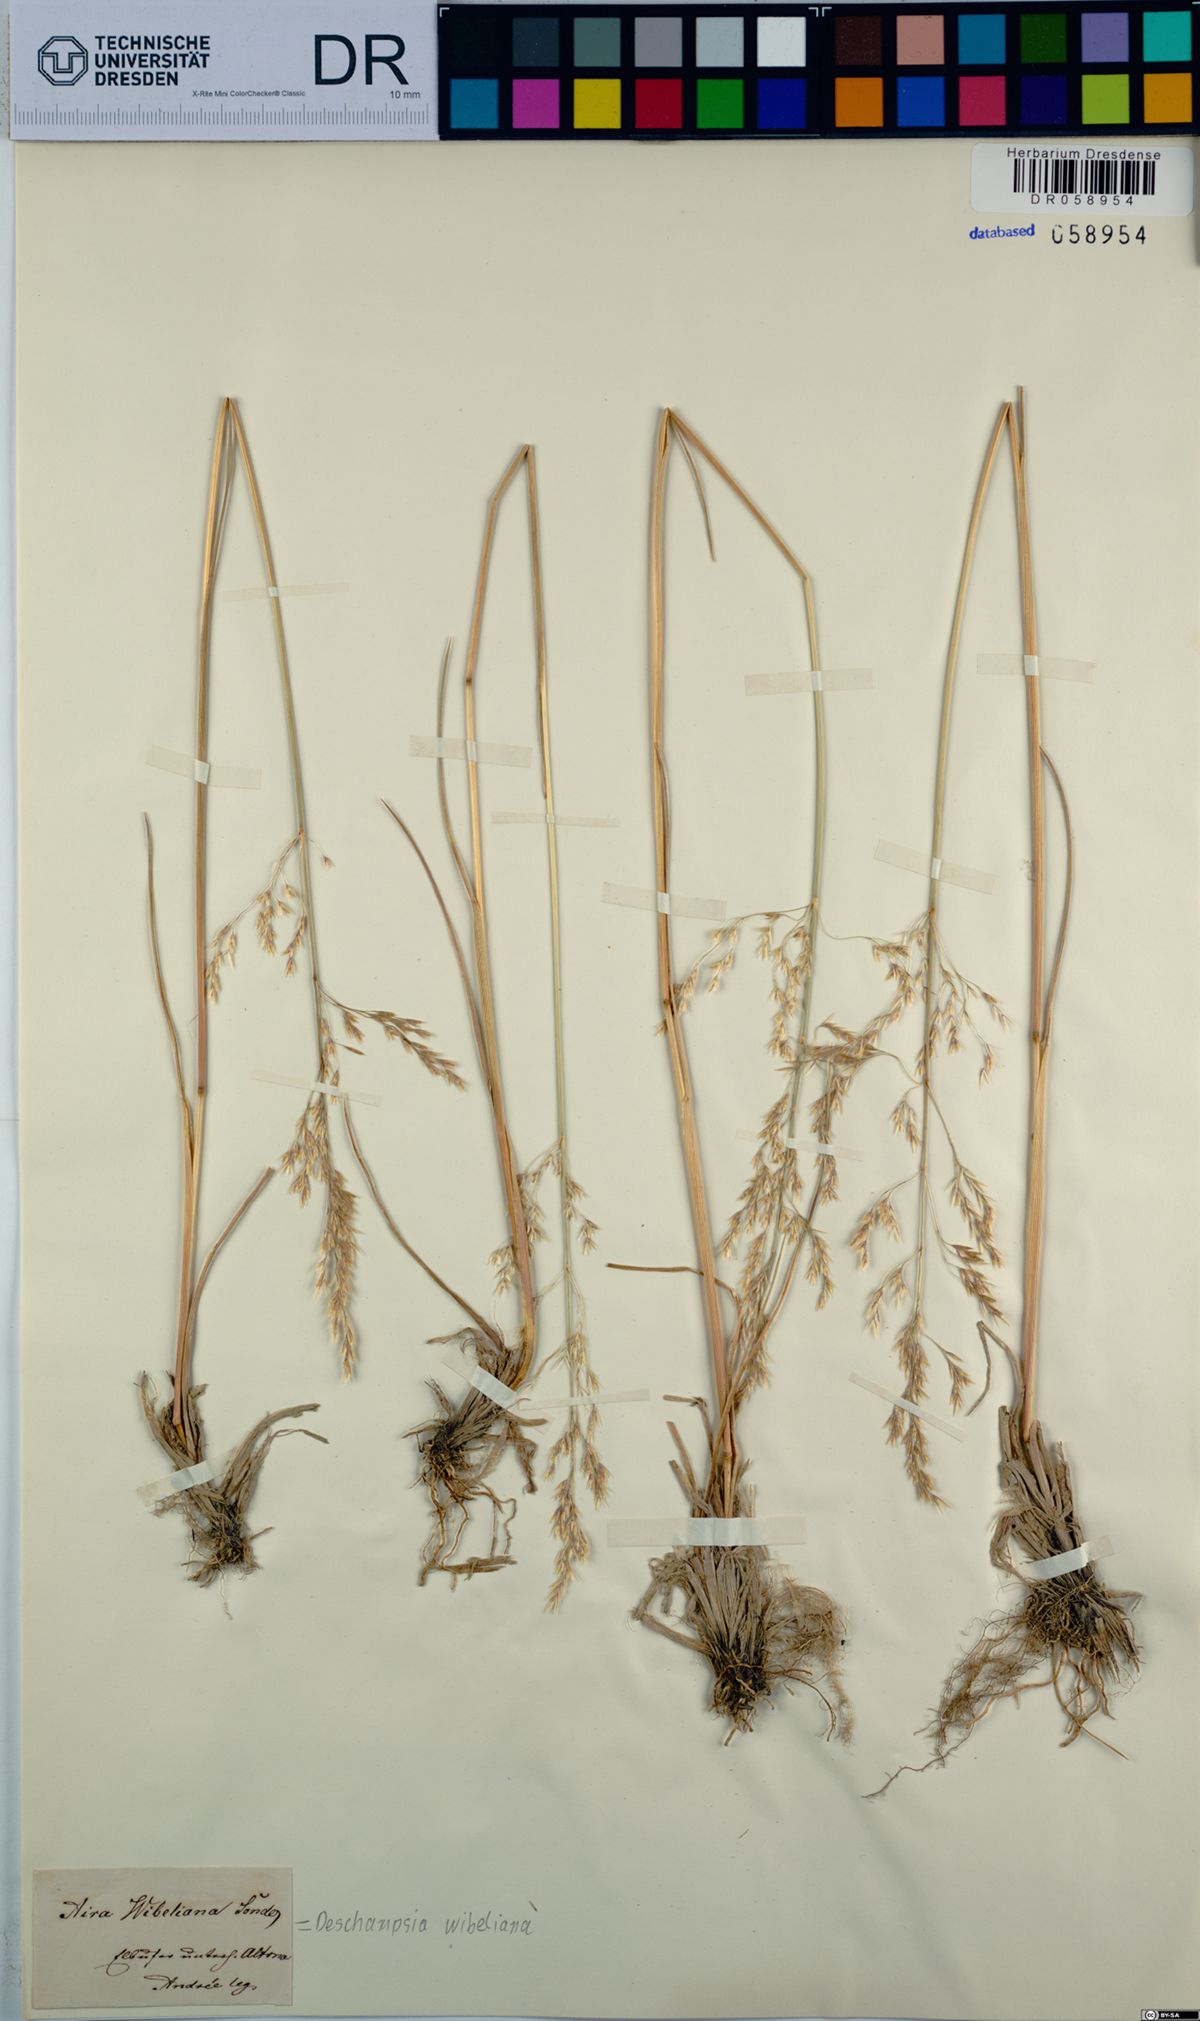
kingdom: Plantae
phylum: Tracheophyta
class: Liliopsida
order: Poales
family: Poaceae
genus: Deschampsia
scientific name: Deschampsia cespitosa
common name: Tufted hair-grass
